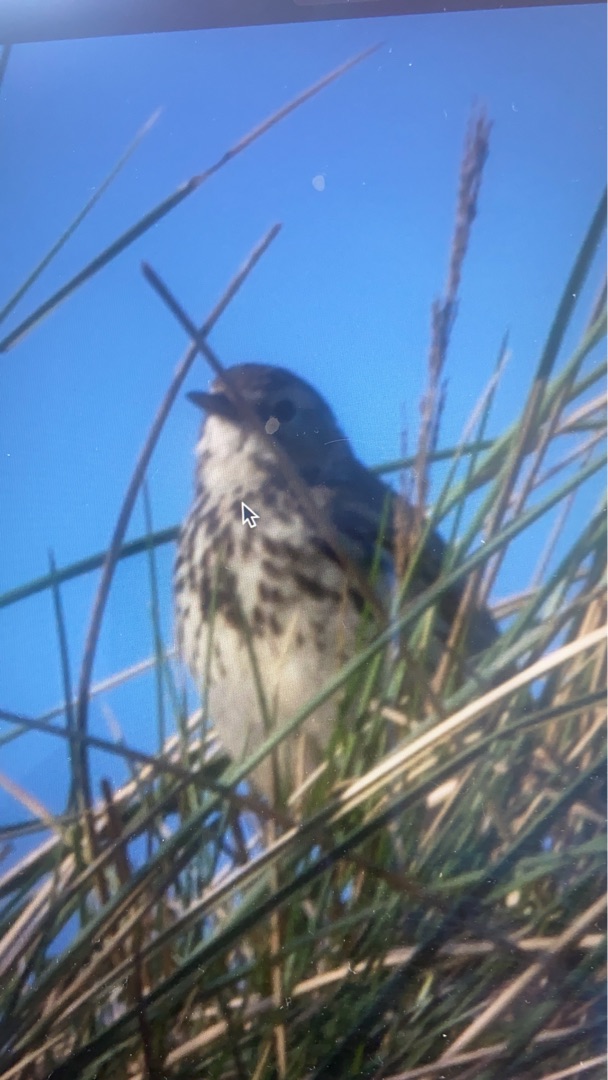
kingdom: Animalia
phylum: Chordata
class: Aves
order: Passeriformes
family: Motacillidae
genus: Anthus
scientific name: Anthus pratensis
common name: Engpiber
